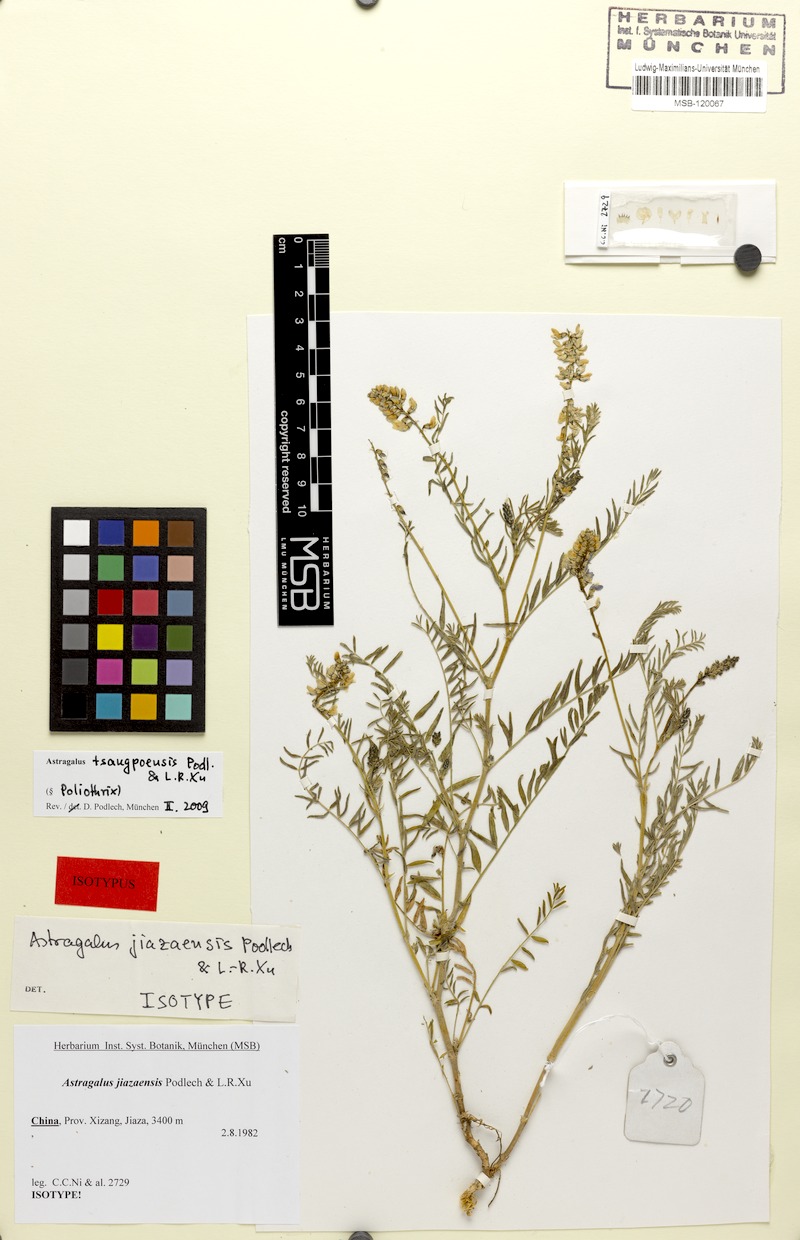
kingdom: Plantae
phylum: Tracheophyta
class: Magnoliopsida
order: Fabales
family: Fabaceae
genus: Astragalus
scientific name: Astragalus tsangpoensis
